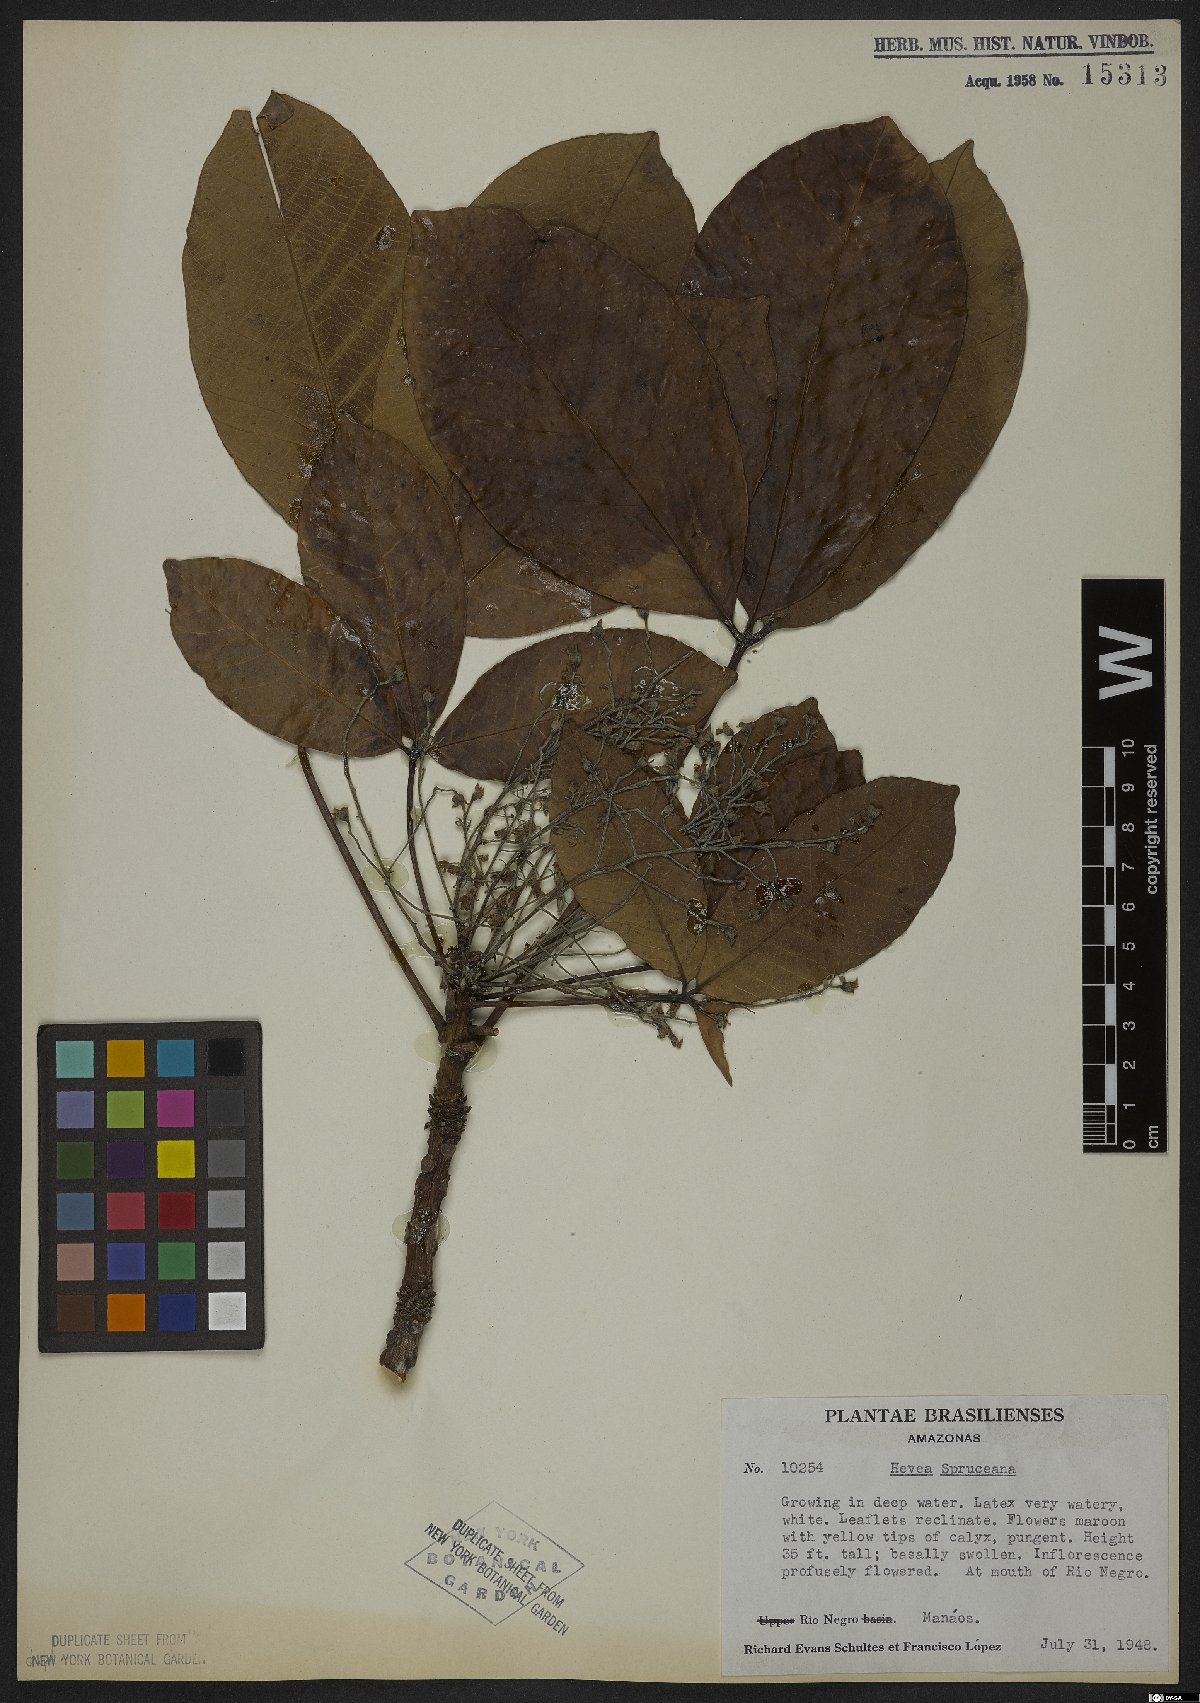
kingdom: Plantae
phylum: Tracheophyta
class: Magnoliopsida
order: Malpighiales
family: Euphorbiaceae
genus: Hevea
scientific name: Hevea spruceana
